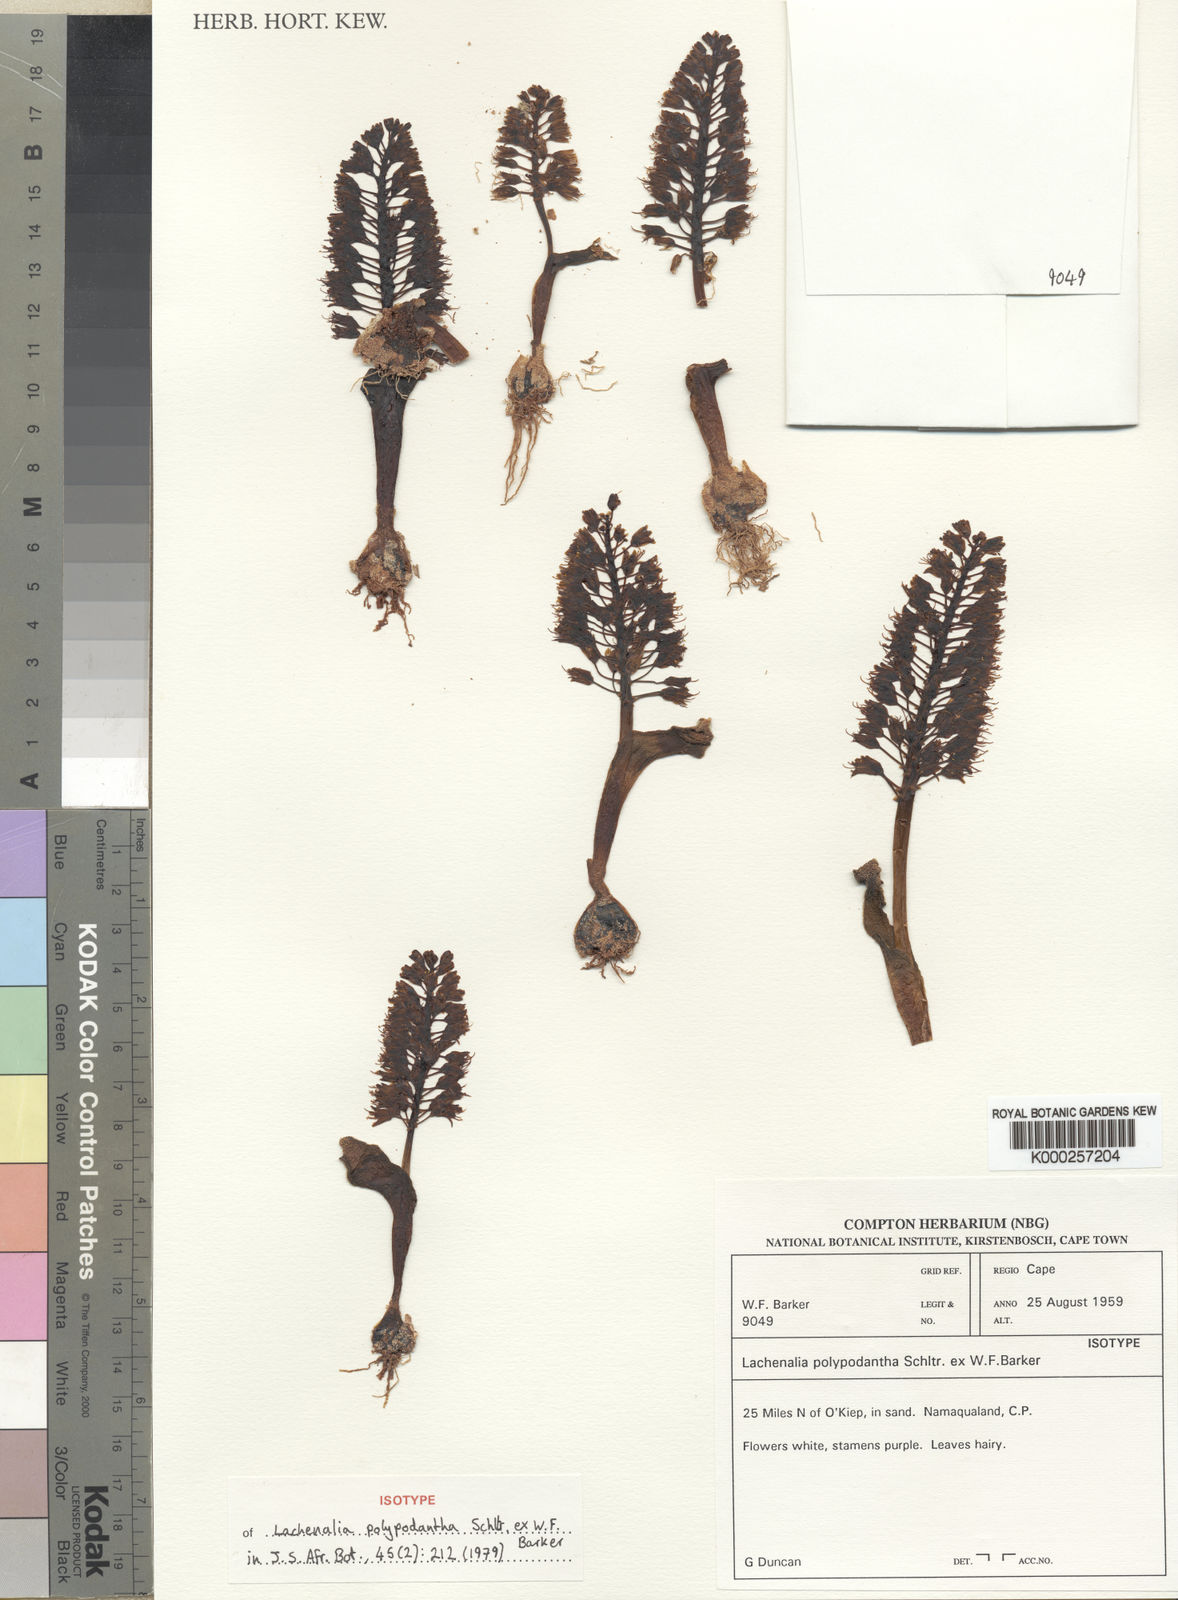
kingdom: Plantae
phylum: Tracheophyta
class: Liliopsida
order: Asparagales
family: Asparagaceae
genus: Lachenalia
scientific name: Lachenalia polypodantha
